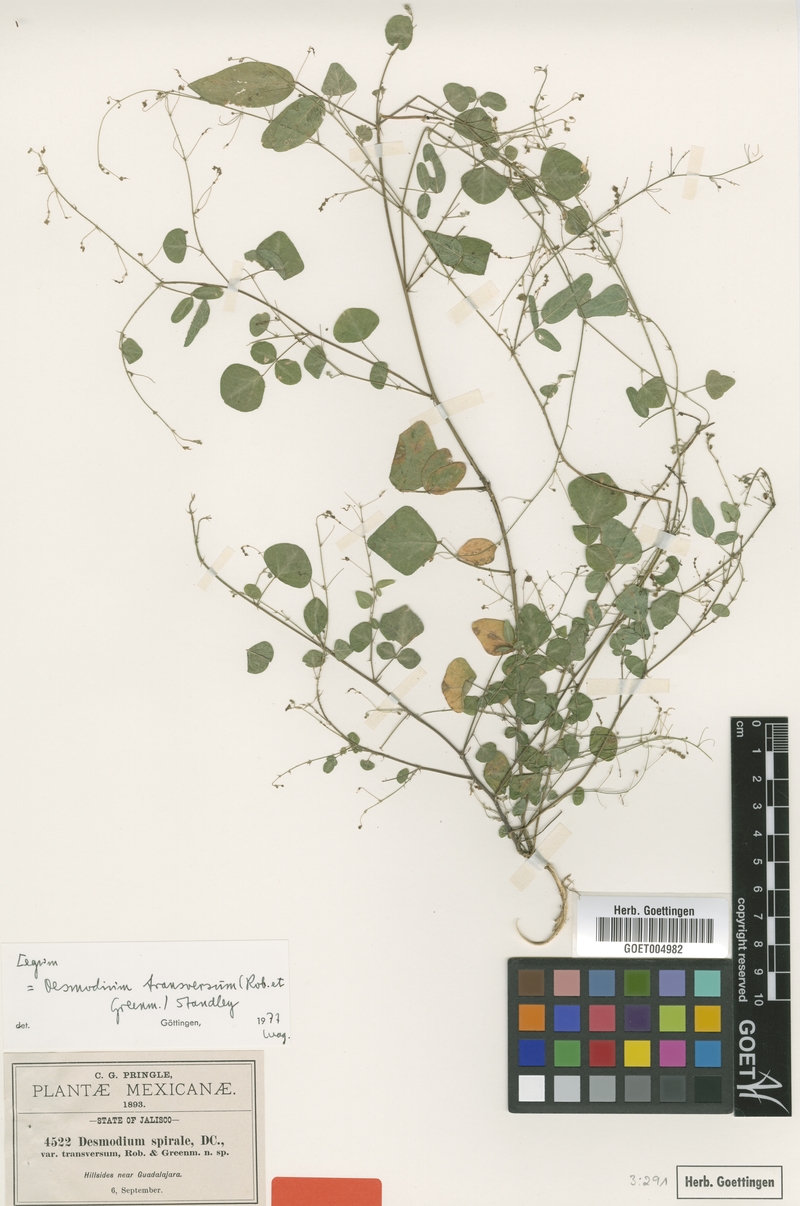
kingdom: Plantae
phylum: Tracheophyta
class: Magnoliopsida
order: Fabales
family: Fabaceae
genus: Desmodium
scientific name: Desmodium procumbens
